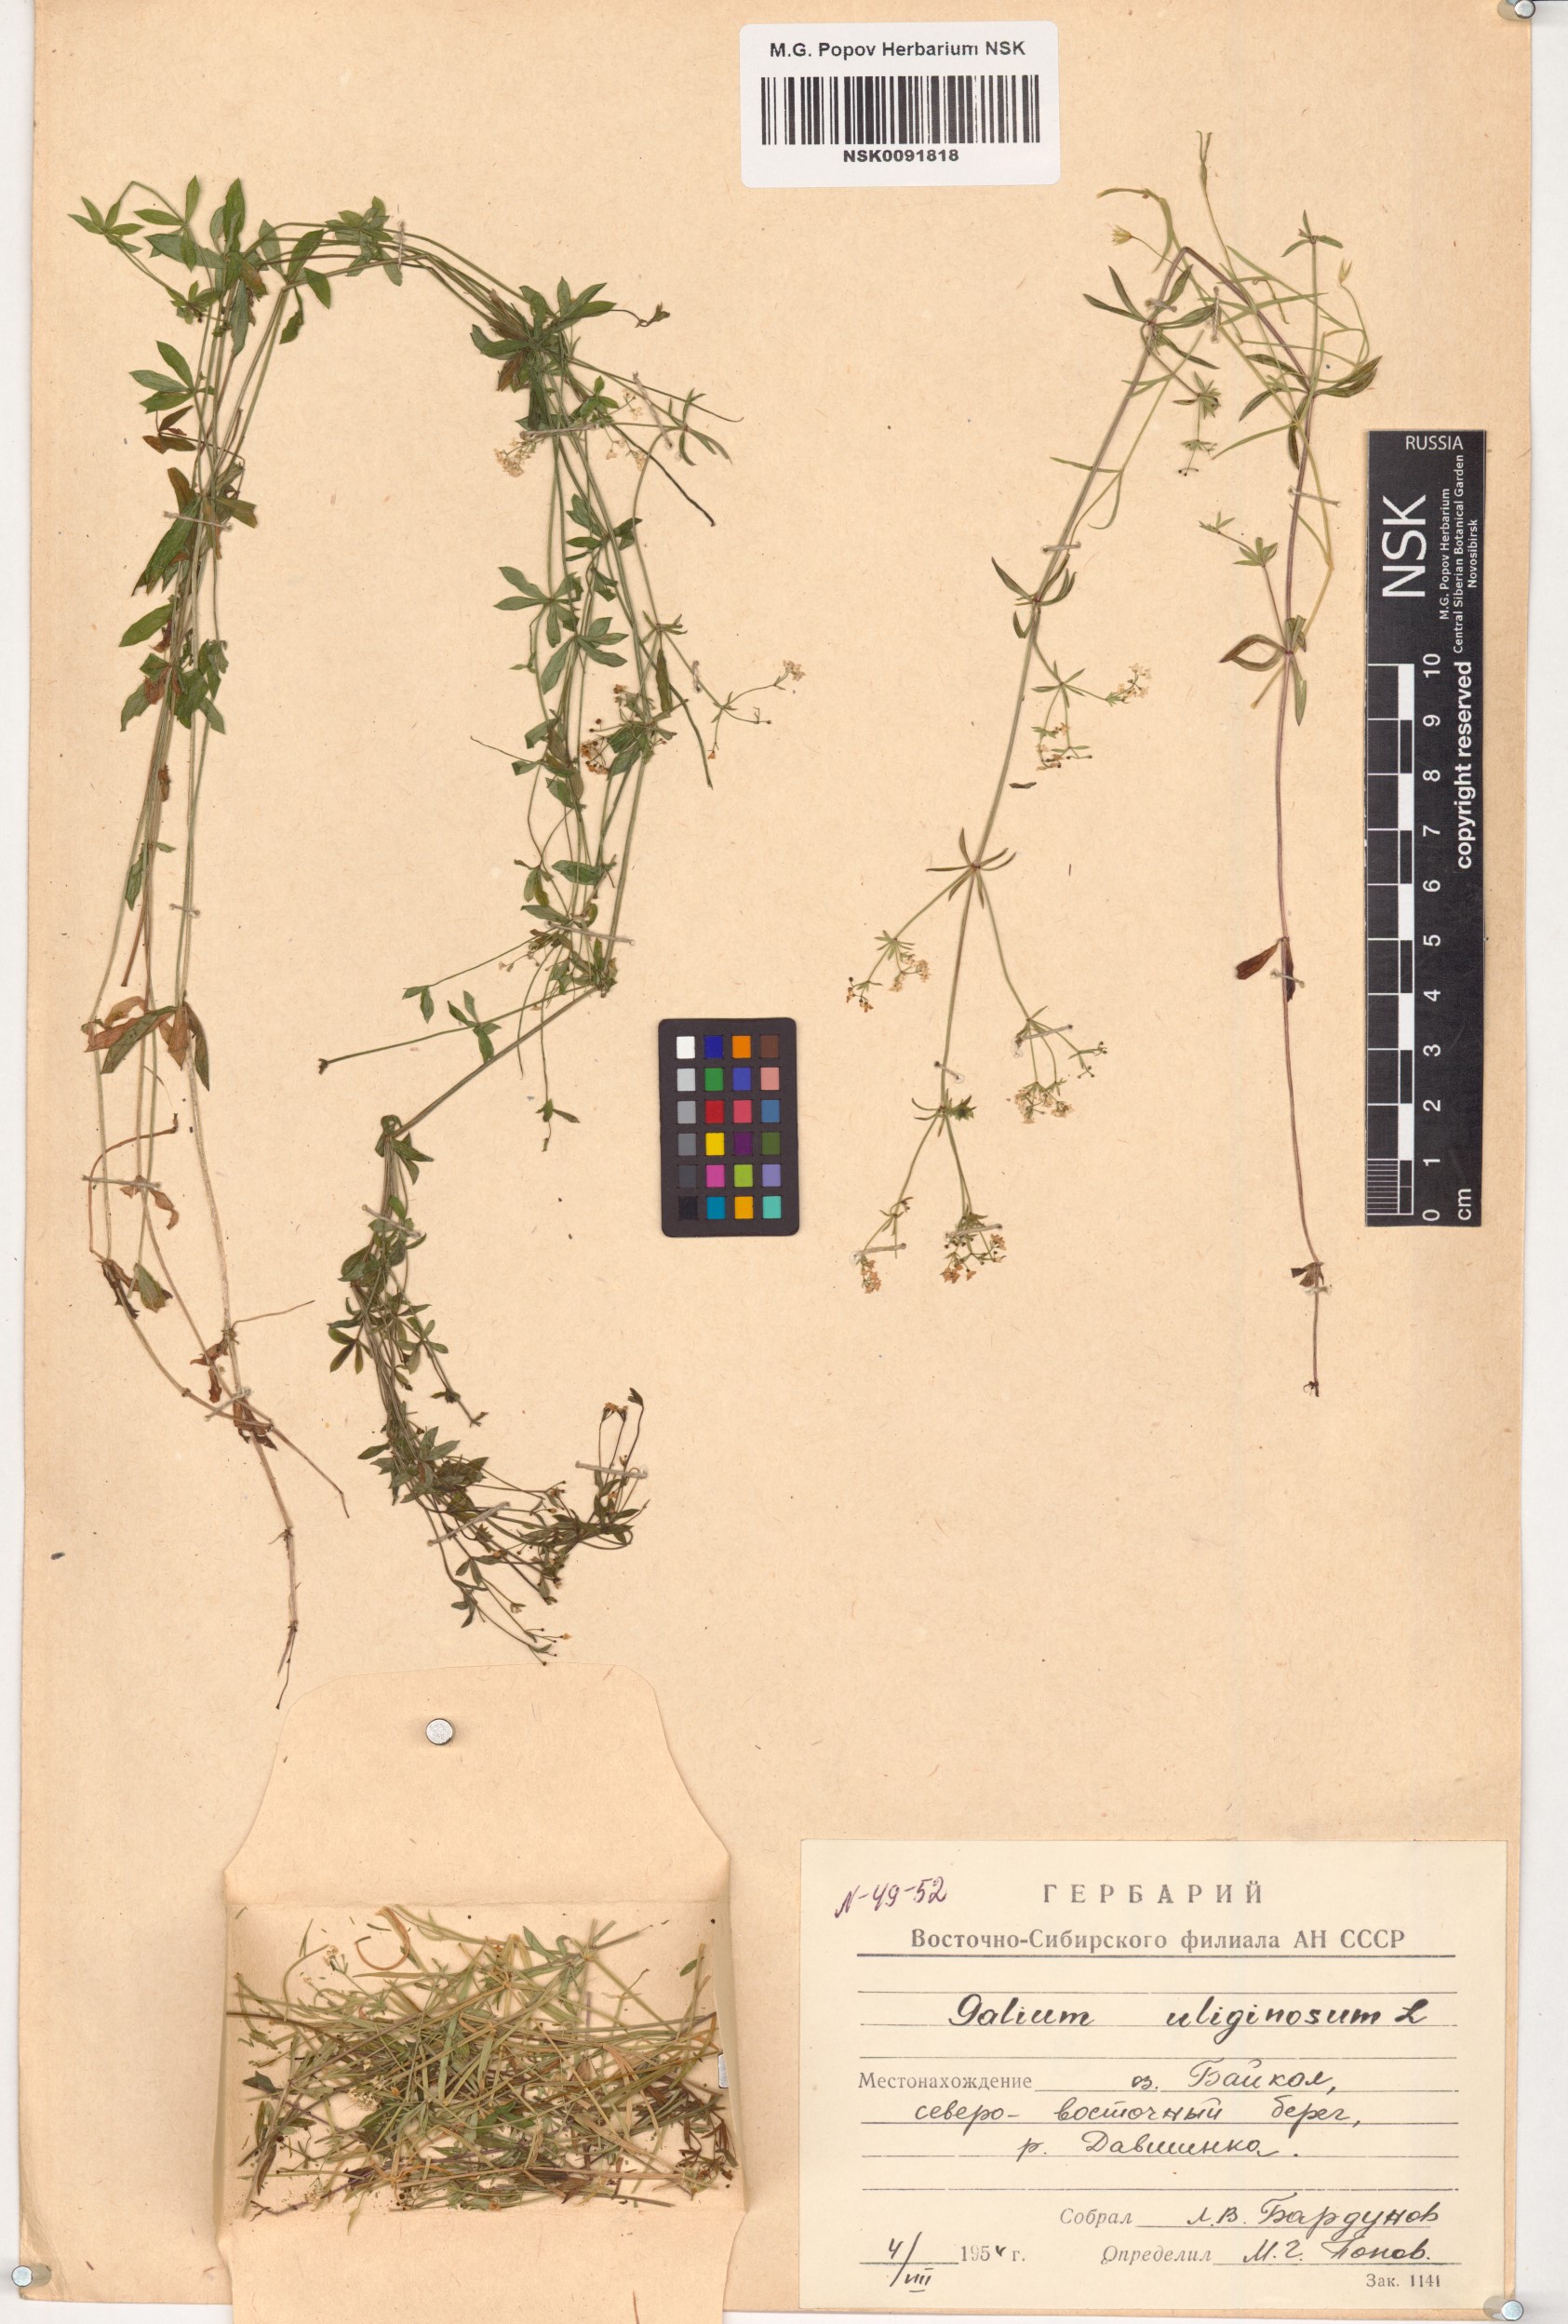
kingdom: Plantae
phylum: Tracheophyta
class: Magnoliopsida
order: Gentianales
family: Rubiaceae
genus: Galium
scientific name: Galium uliginosum
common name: Fen bedstraw
